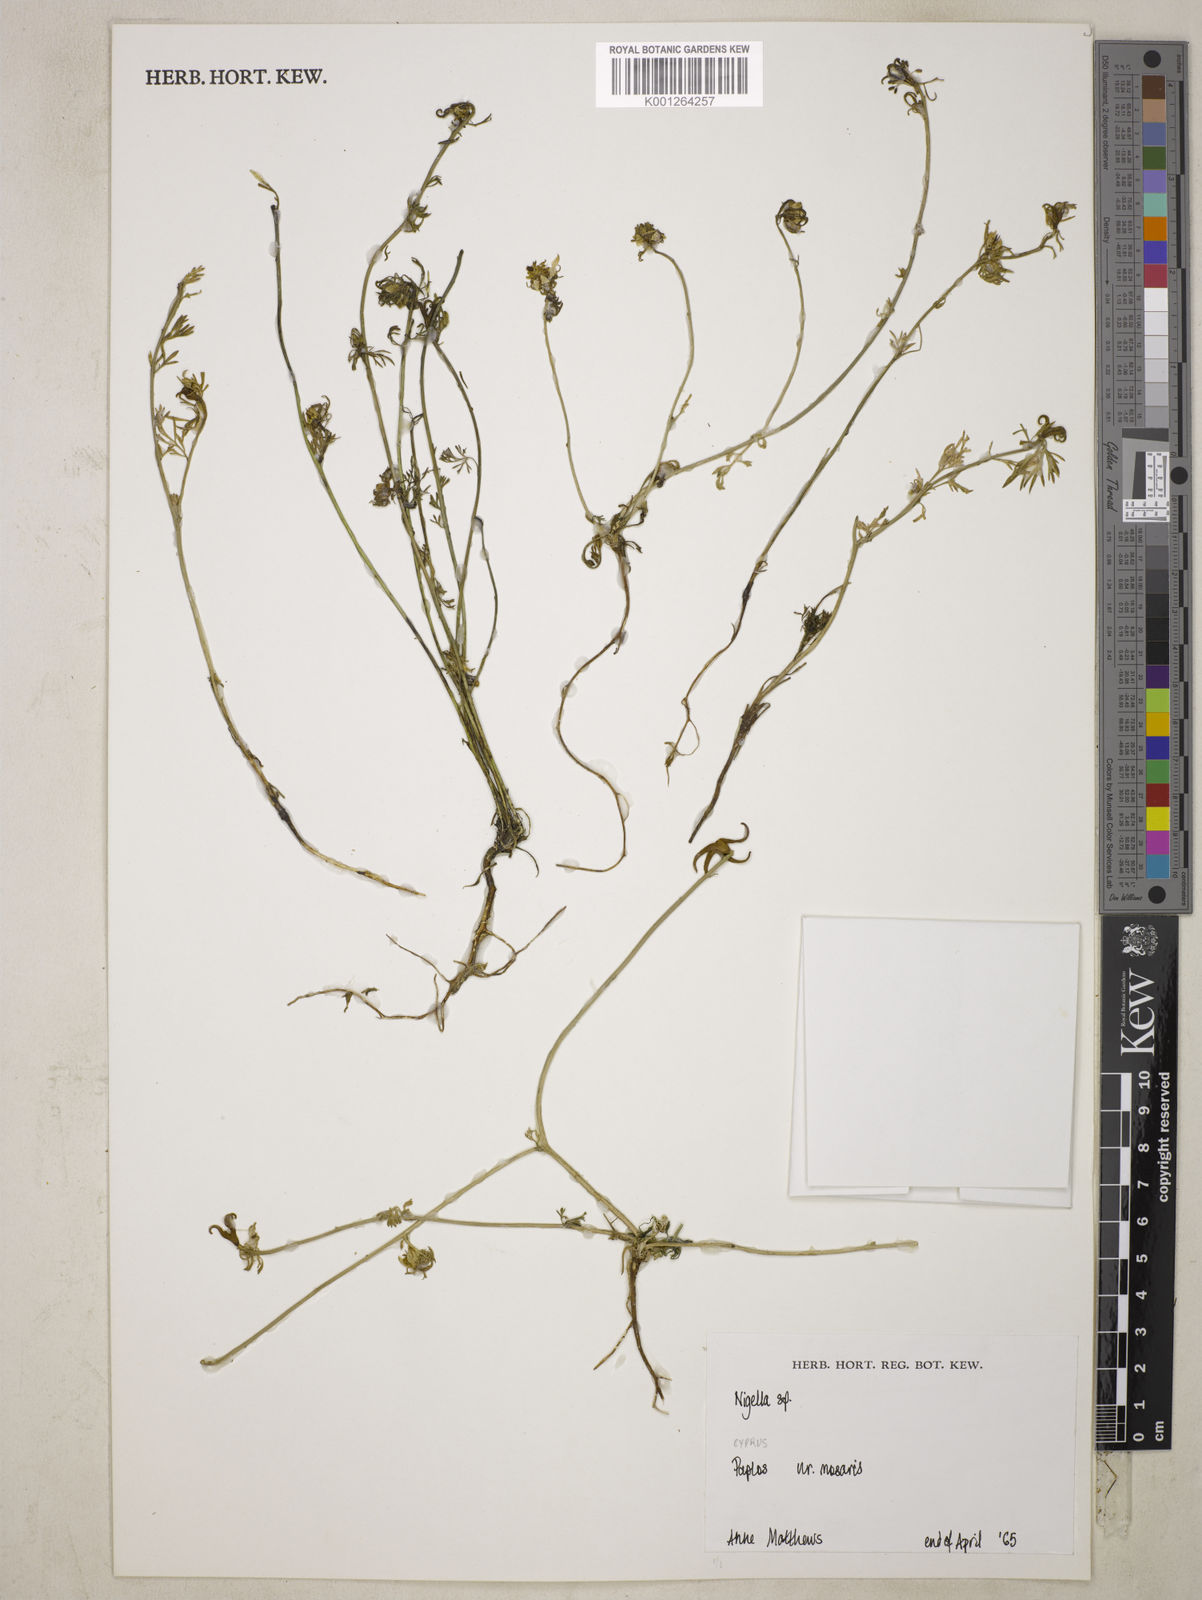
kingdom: Plantae
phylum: Tracheophyta
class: Magnoliopsida
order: Ranunculales
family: Ranunculaceae
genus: Nigella
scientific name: Nigella
